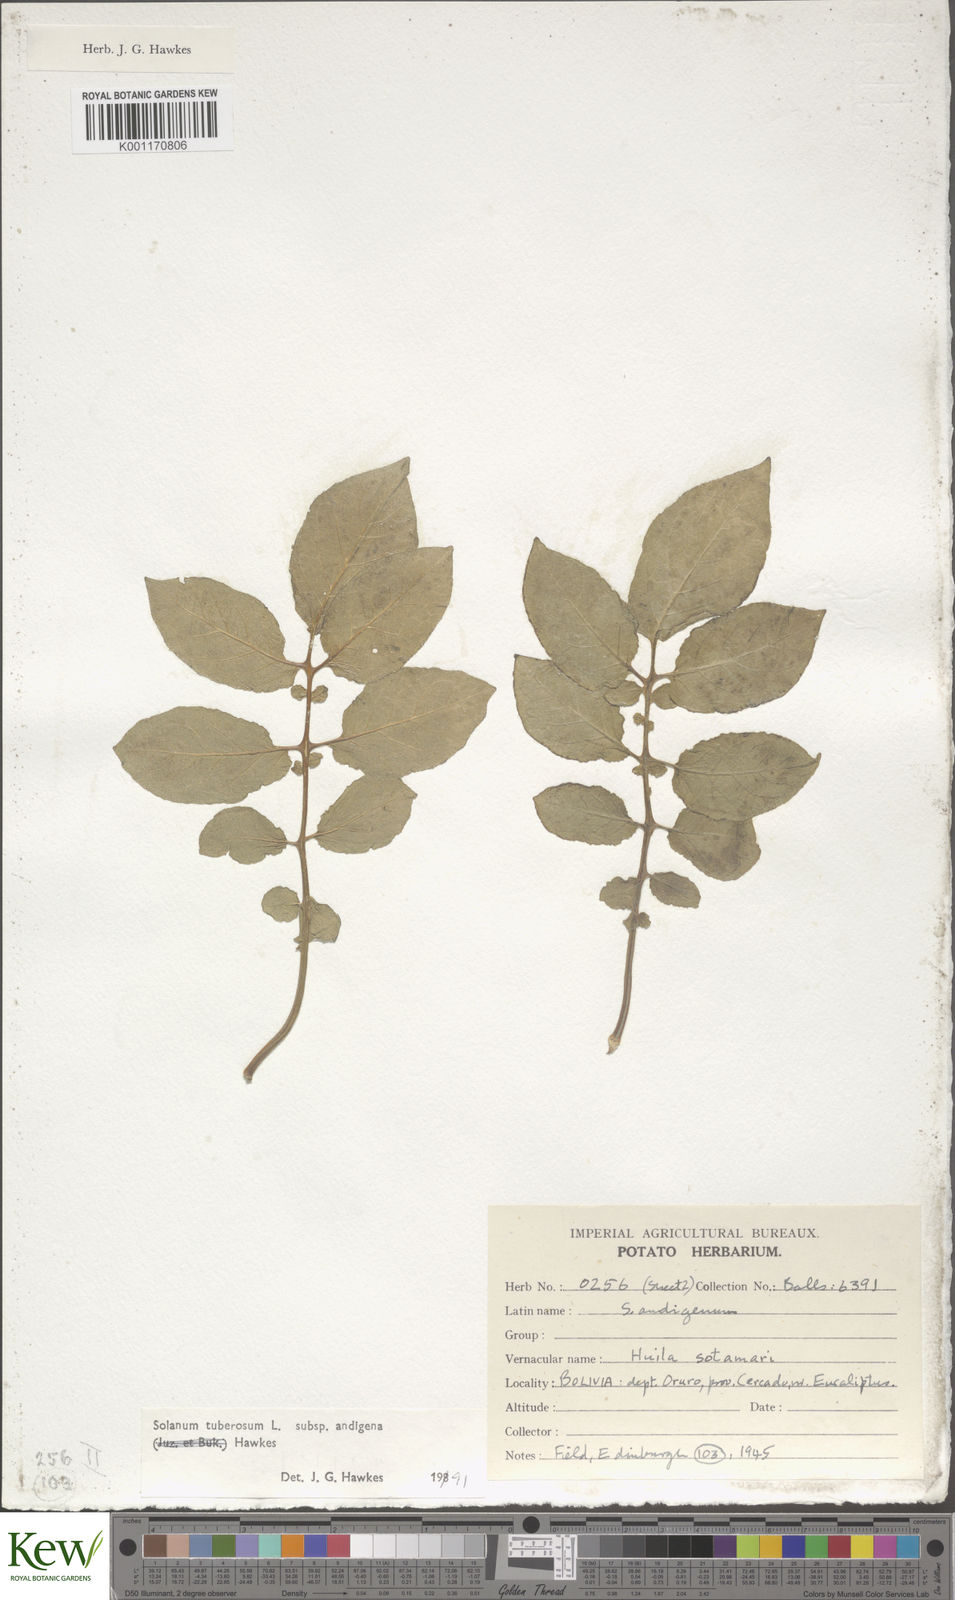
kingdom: Plantae
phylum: Tracheophyta
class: Magnoliopsida
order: Solanales
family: Solanaceae
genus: Solanum
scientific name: Solanum tuberosum
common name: Potato
